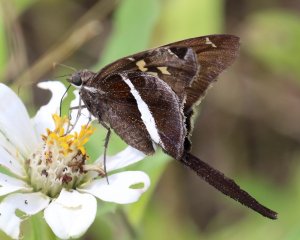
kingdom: Animalia
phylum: Arthropoda
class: Insecta
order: Lepidoptera
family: Hesperiidae
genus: Chioides
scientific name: Chioides catillus
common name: White-striped Longtail
